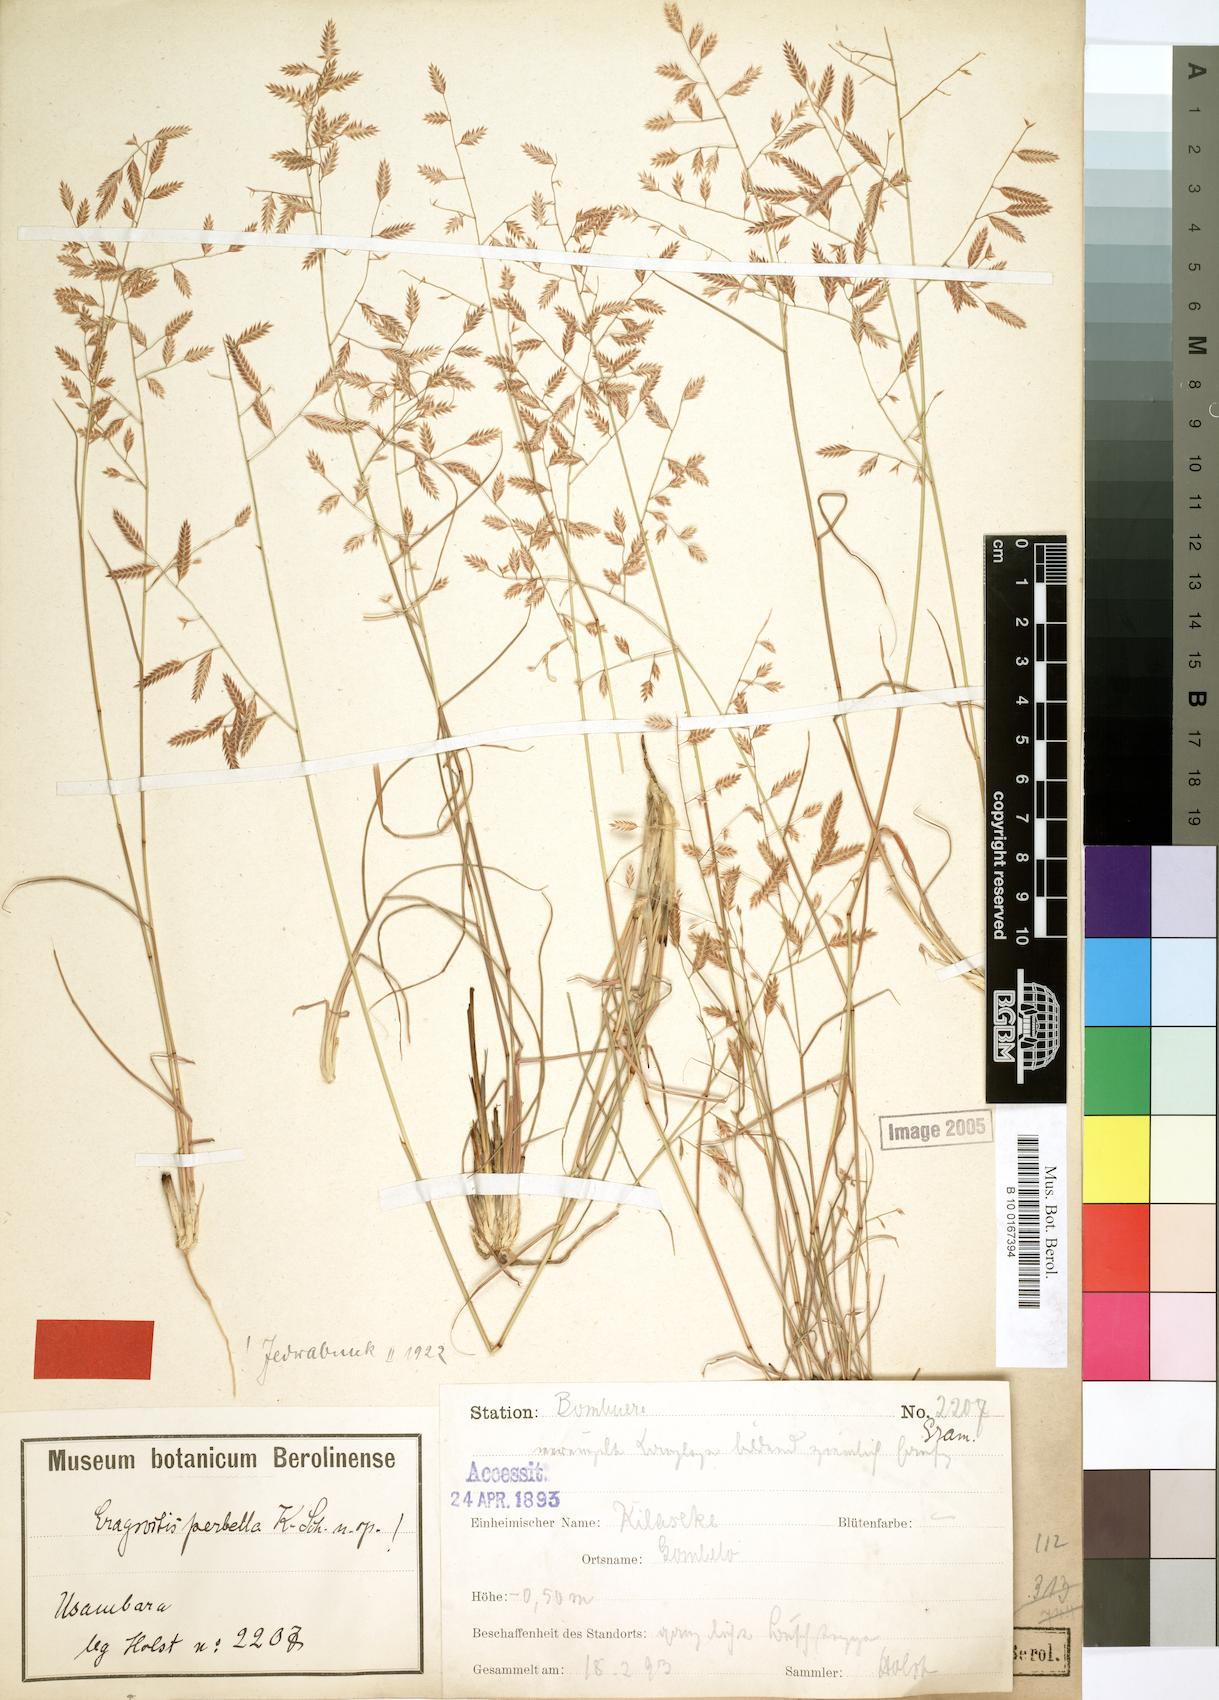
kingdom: Plantae
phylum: Tracheophyta
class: Liliopsida
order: Poales
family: Poaceae
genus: Eragrostis
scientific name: Eragrostis perbella
